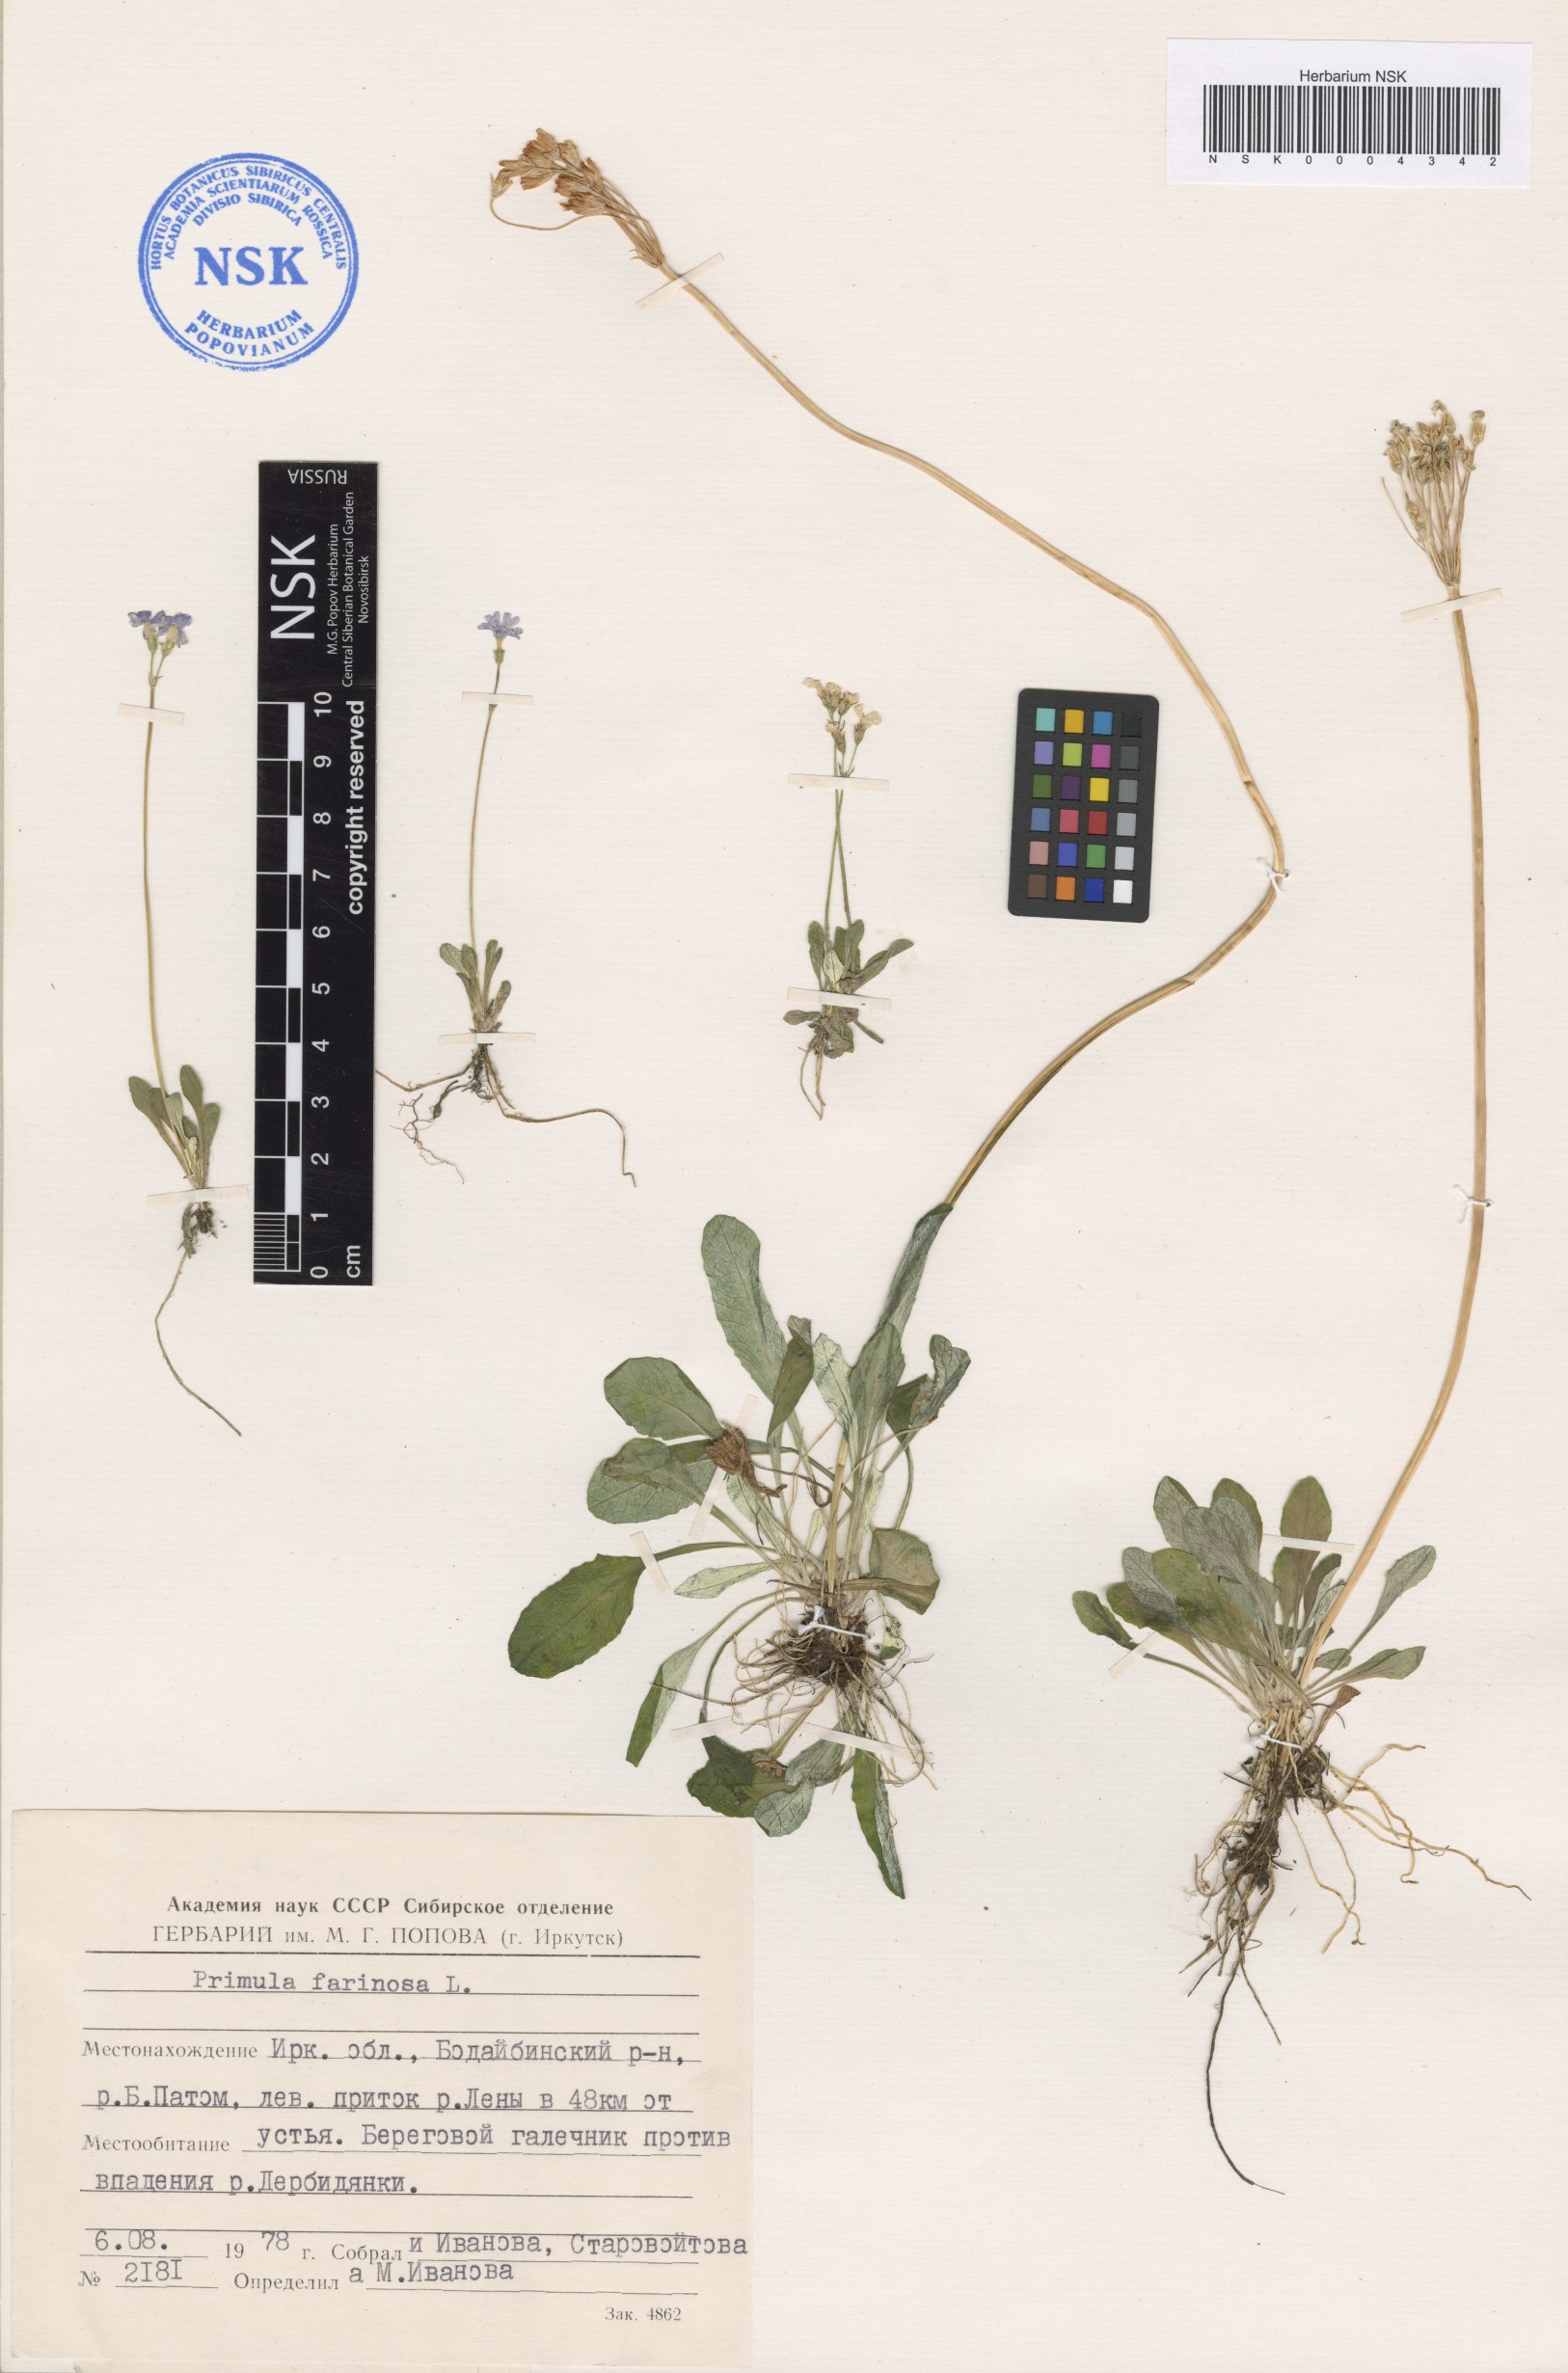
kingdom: Plantae
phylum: Tracheophyta
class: Magnoliopsida
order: Ericales
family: Primulaceae
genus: Primula
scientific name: Primula farinosa
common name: Bird's-eye primrose
